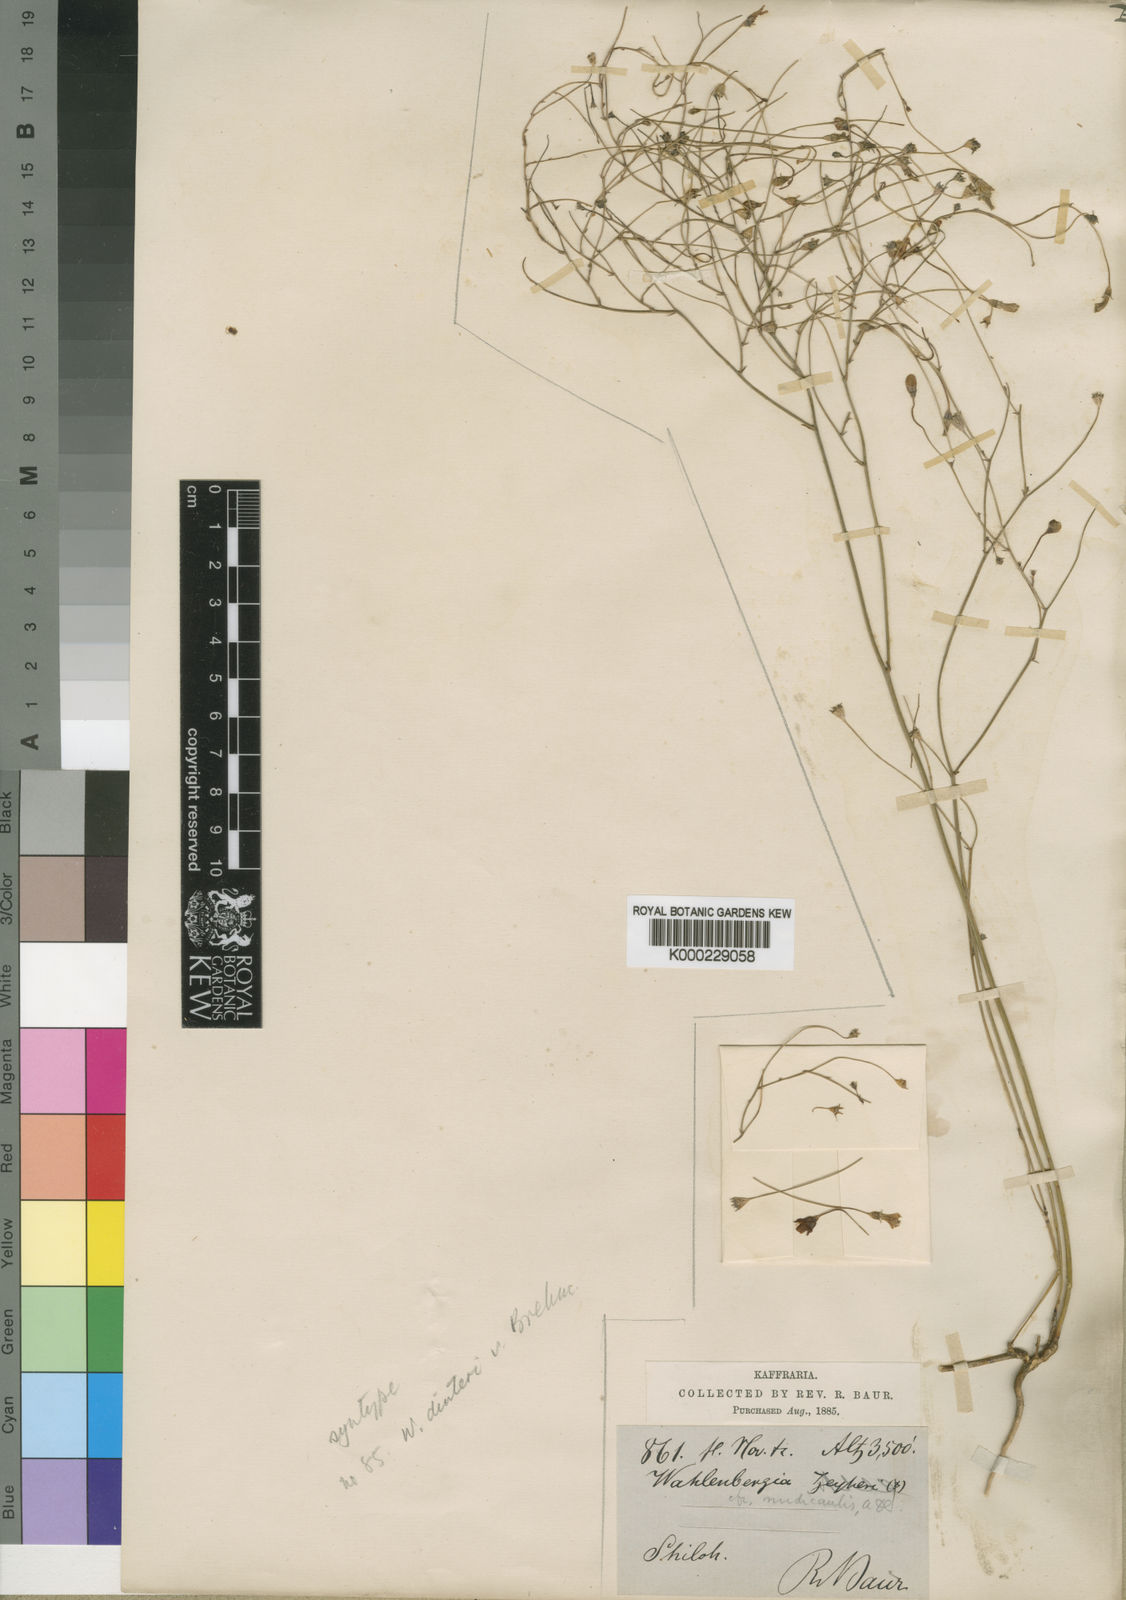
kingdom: Plantae
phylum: Tracheophyta
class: Magnoliopsida
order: Asterales
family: Campanulaceae
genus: Wahlenbergia
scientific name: Wahlenbergia undulata
